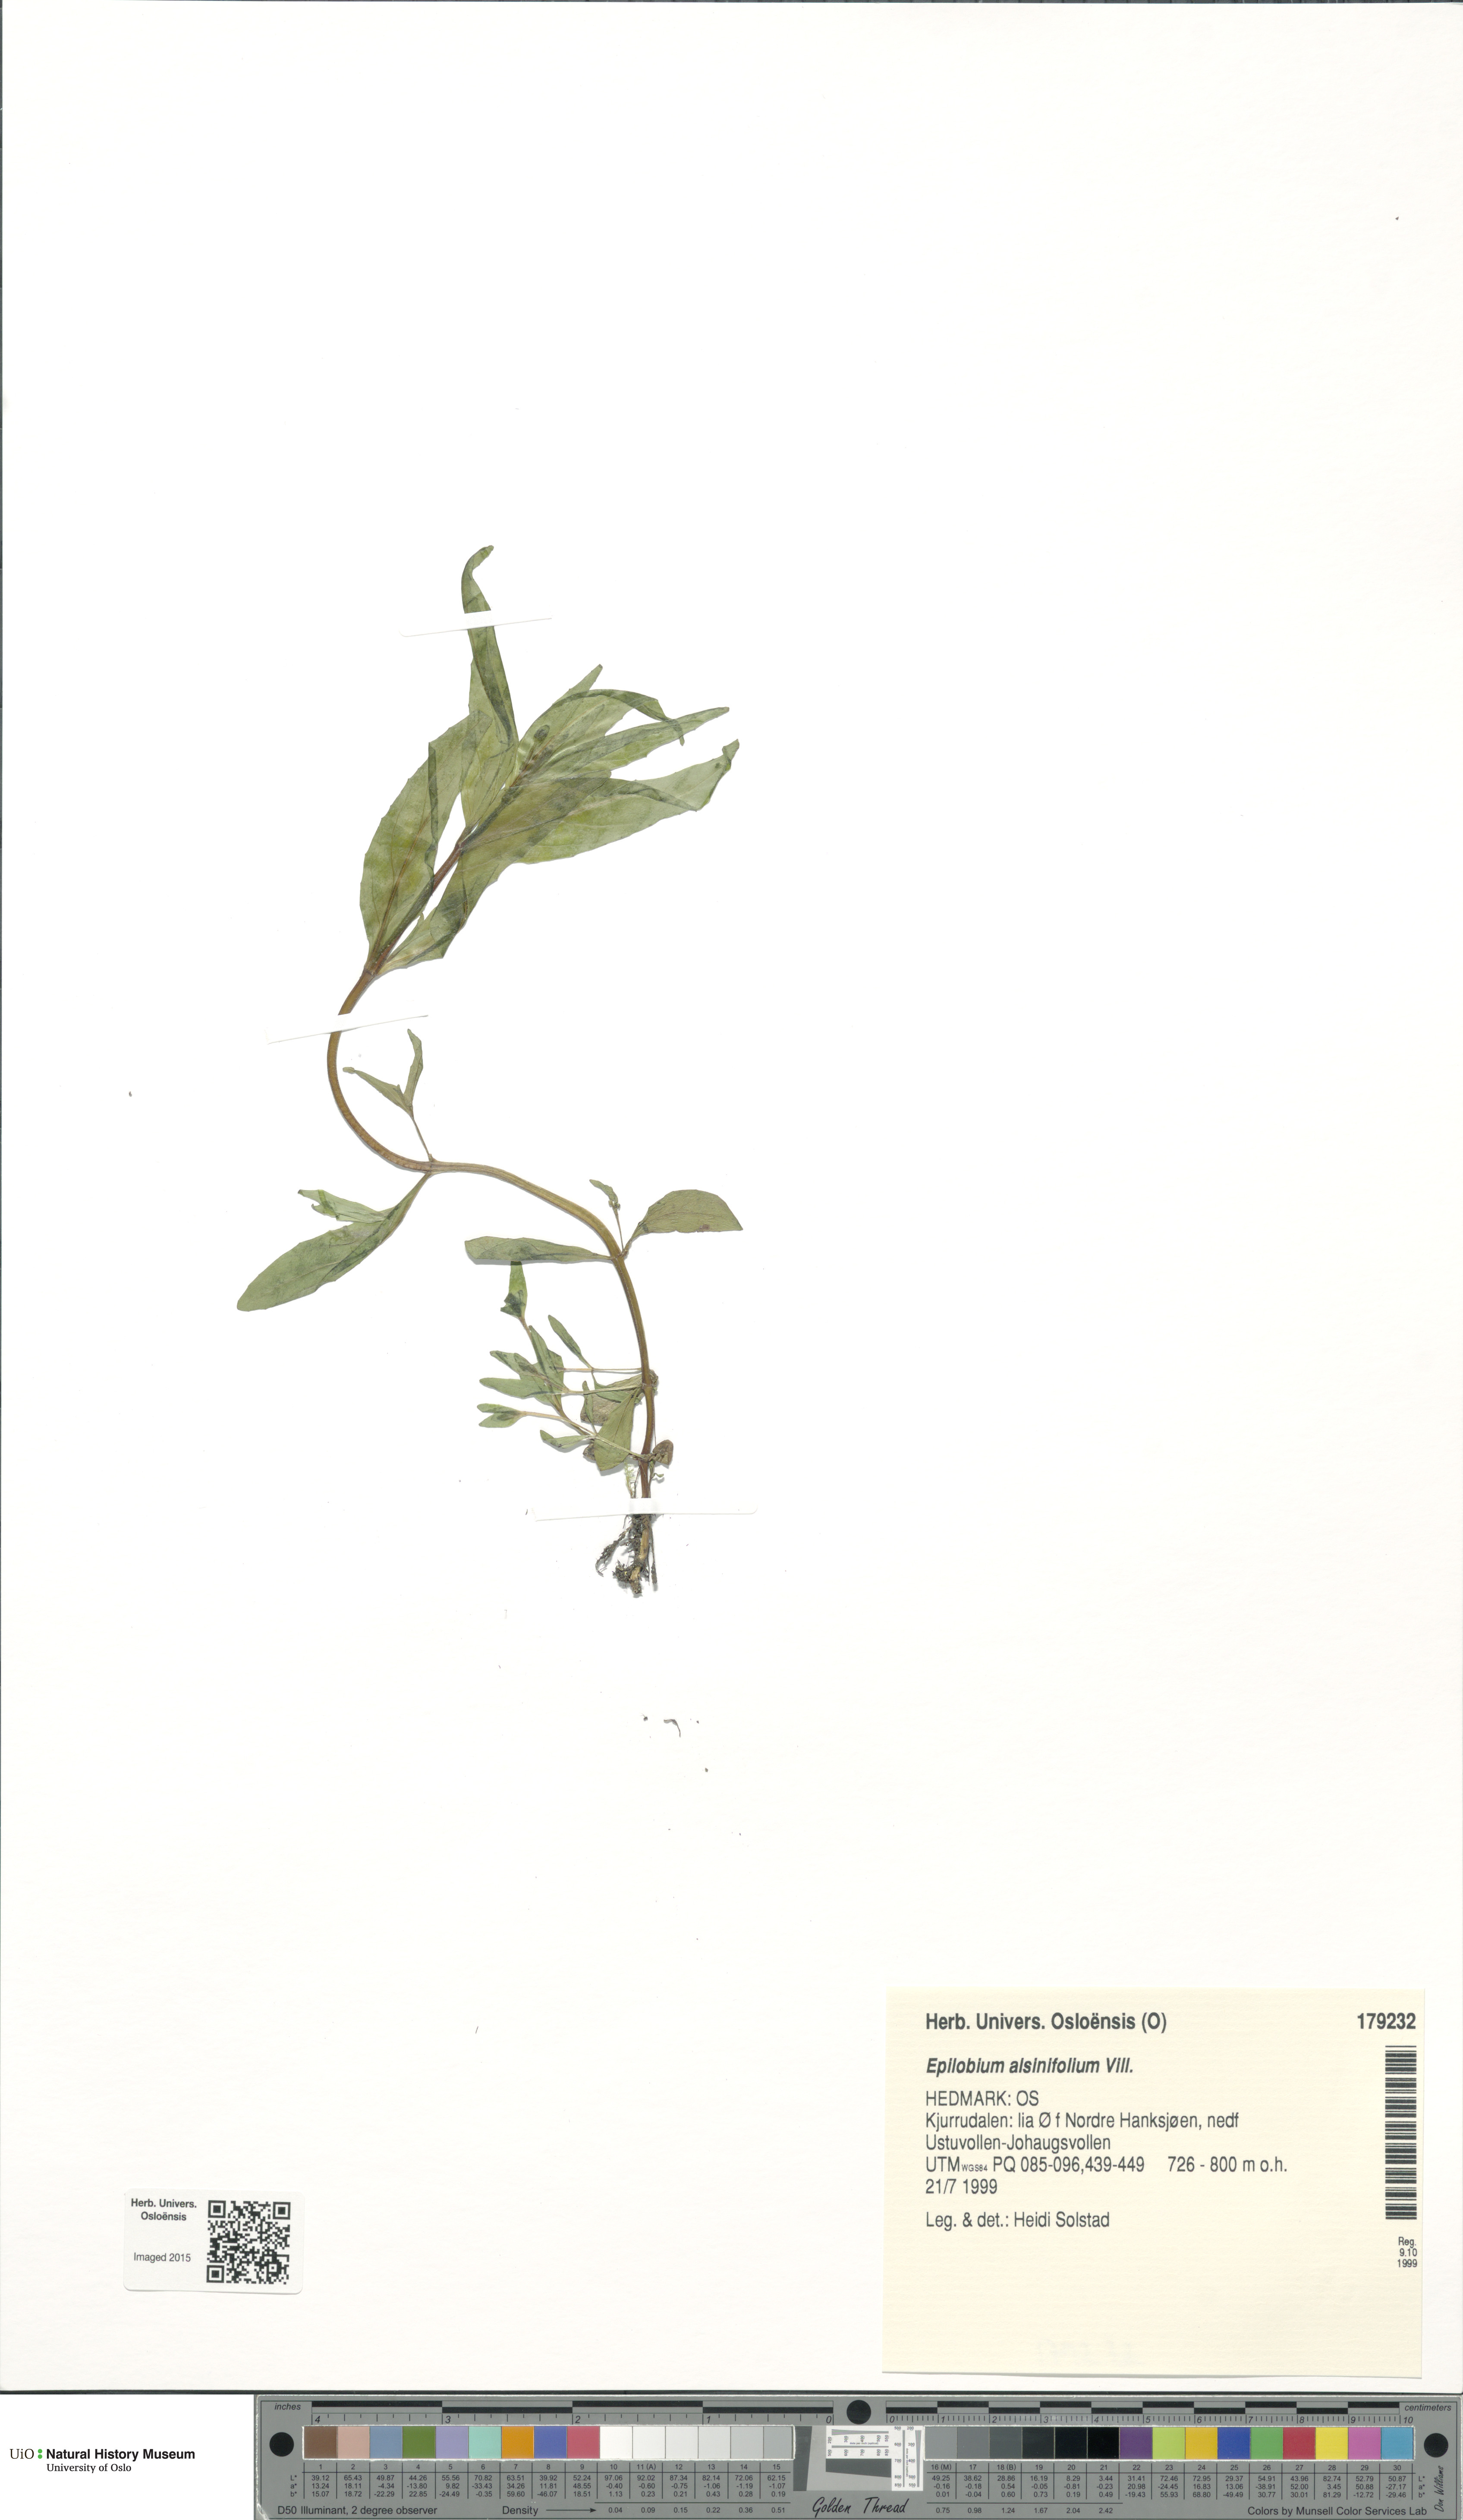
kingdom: Plantae
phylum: Tracheophyta
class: Magnoliopsida
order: Myrtales
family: Onagraceae
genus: Epilobium
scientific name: Epilobium alsinifolium
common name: Chickweed willowherb
